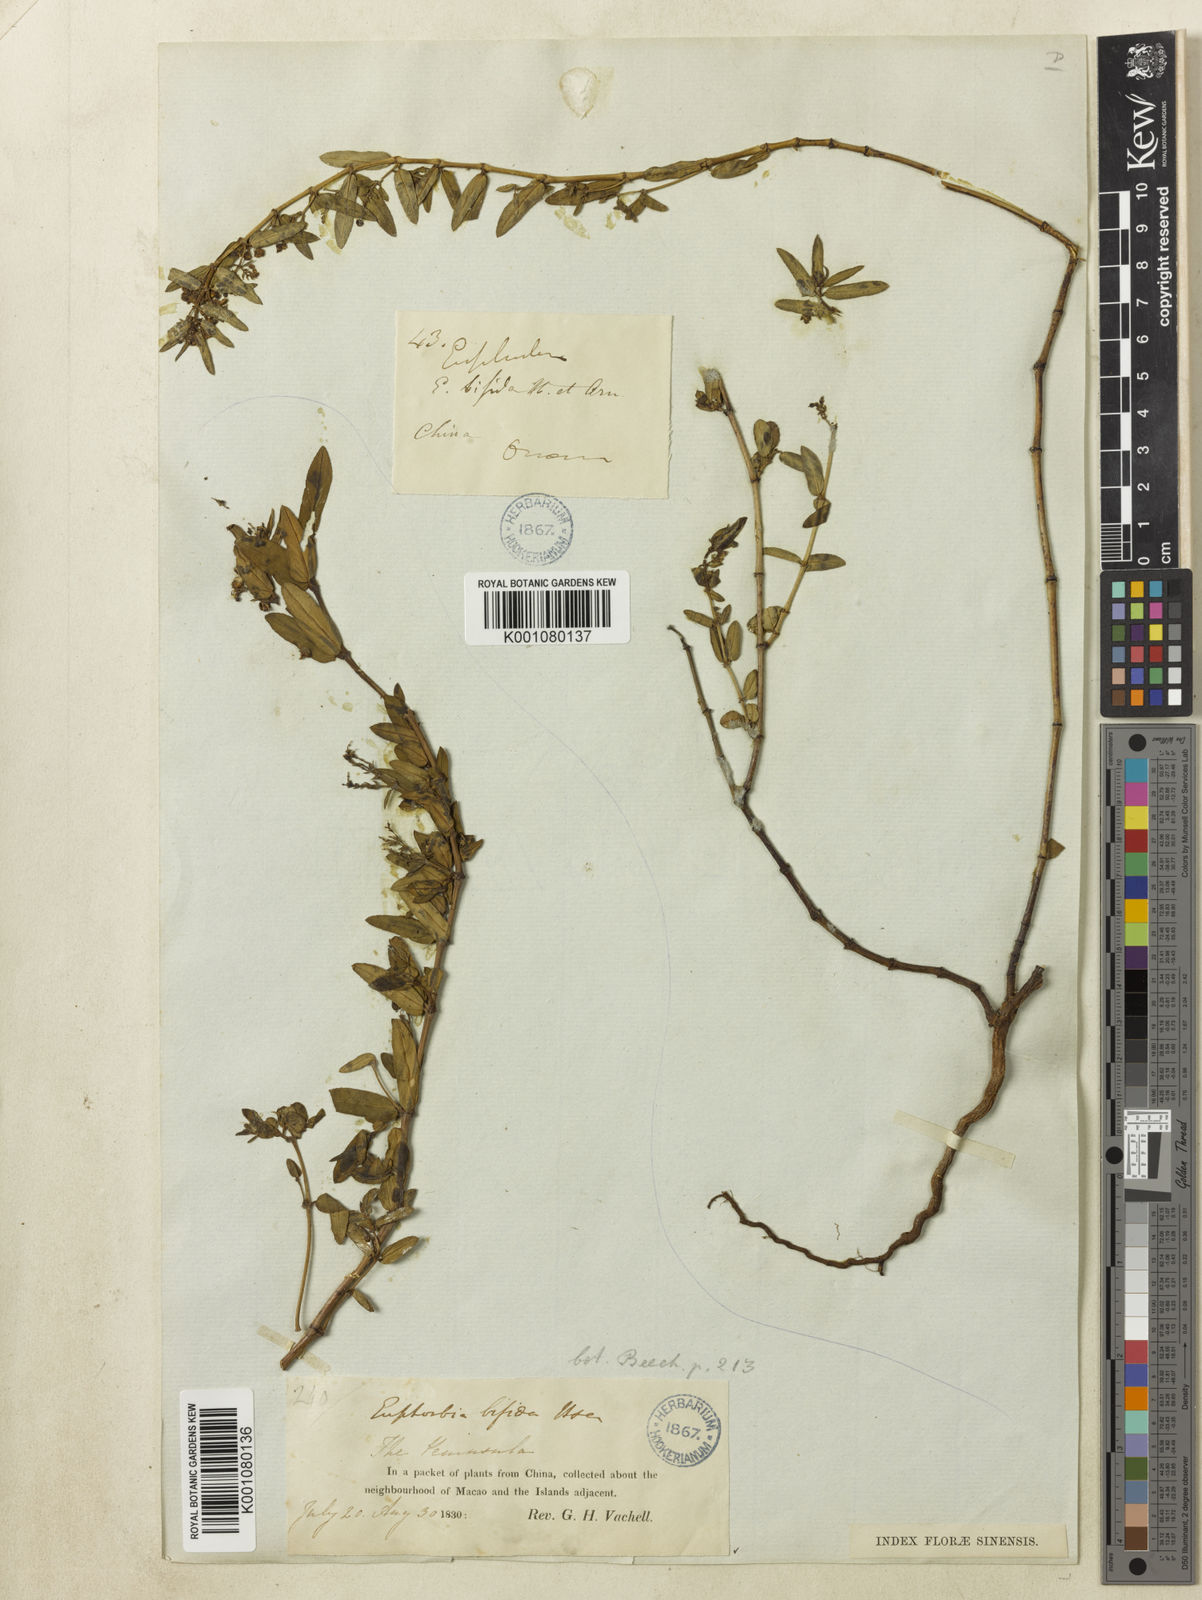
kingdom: Plantae
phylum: Tracheophyta
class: Magnoliopsida
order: Malpighiales
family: Euphorbiaceae
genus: Euphorbia
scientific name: Euphorbia bifida
